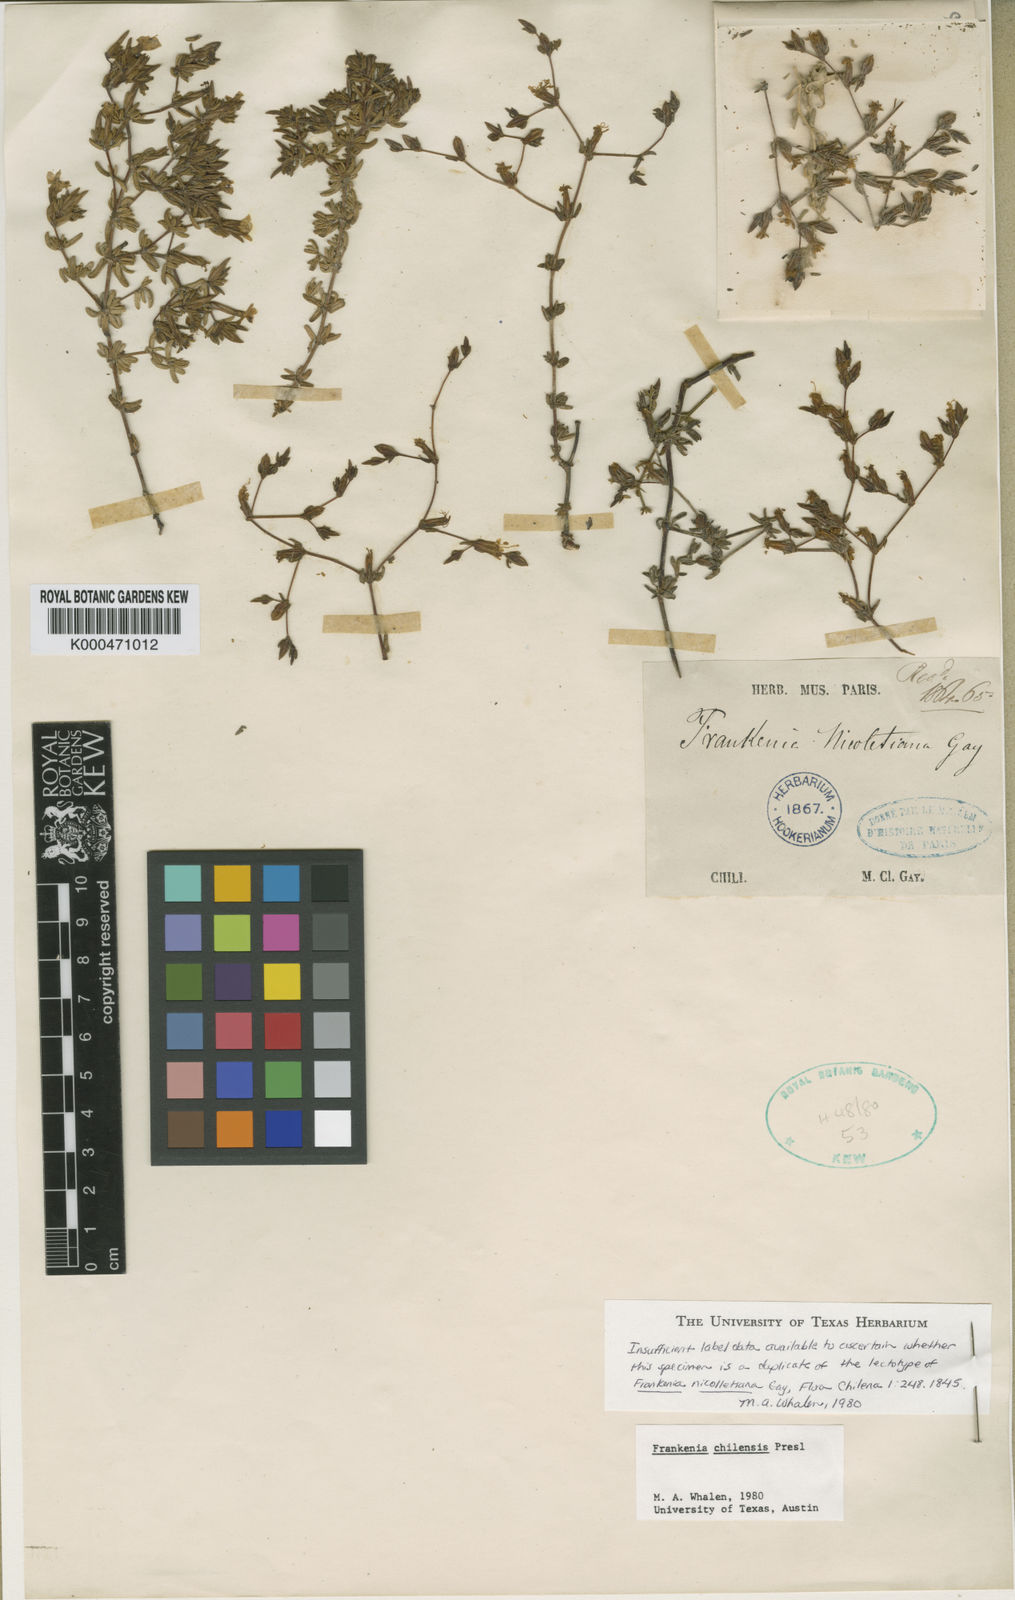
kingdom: Plantae
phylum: Tracheophyta
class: Magnoliopsida
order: Caryophyllales
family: Frankeniaceae
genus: Frankenia
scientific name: Frankenia
